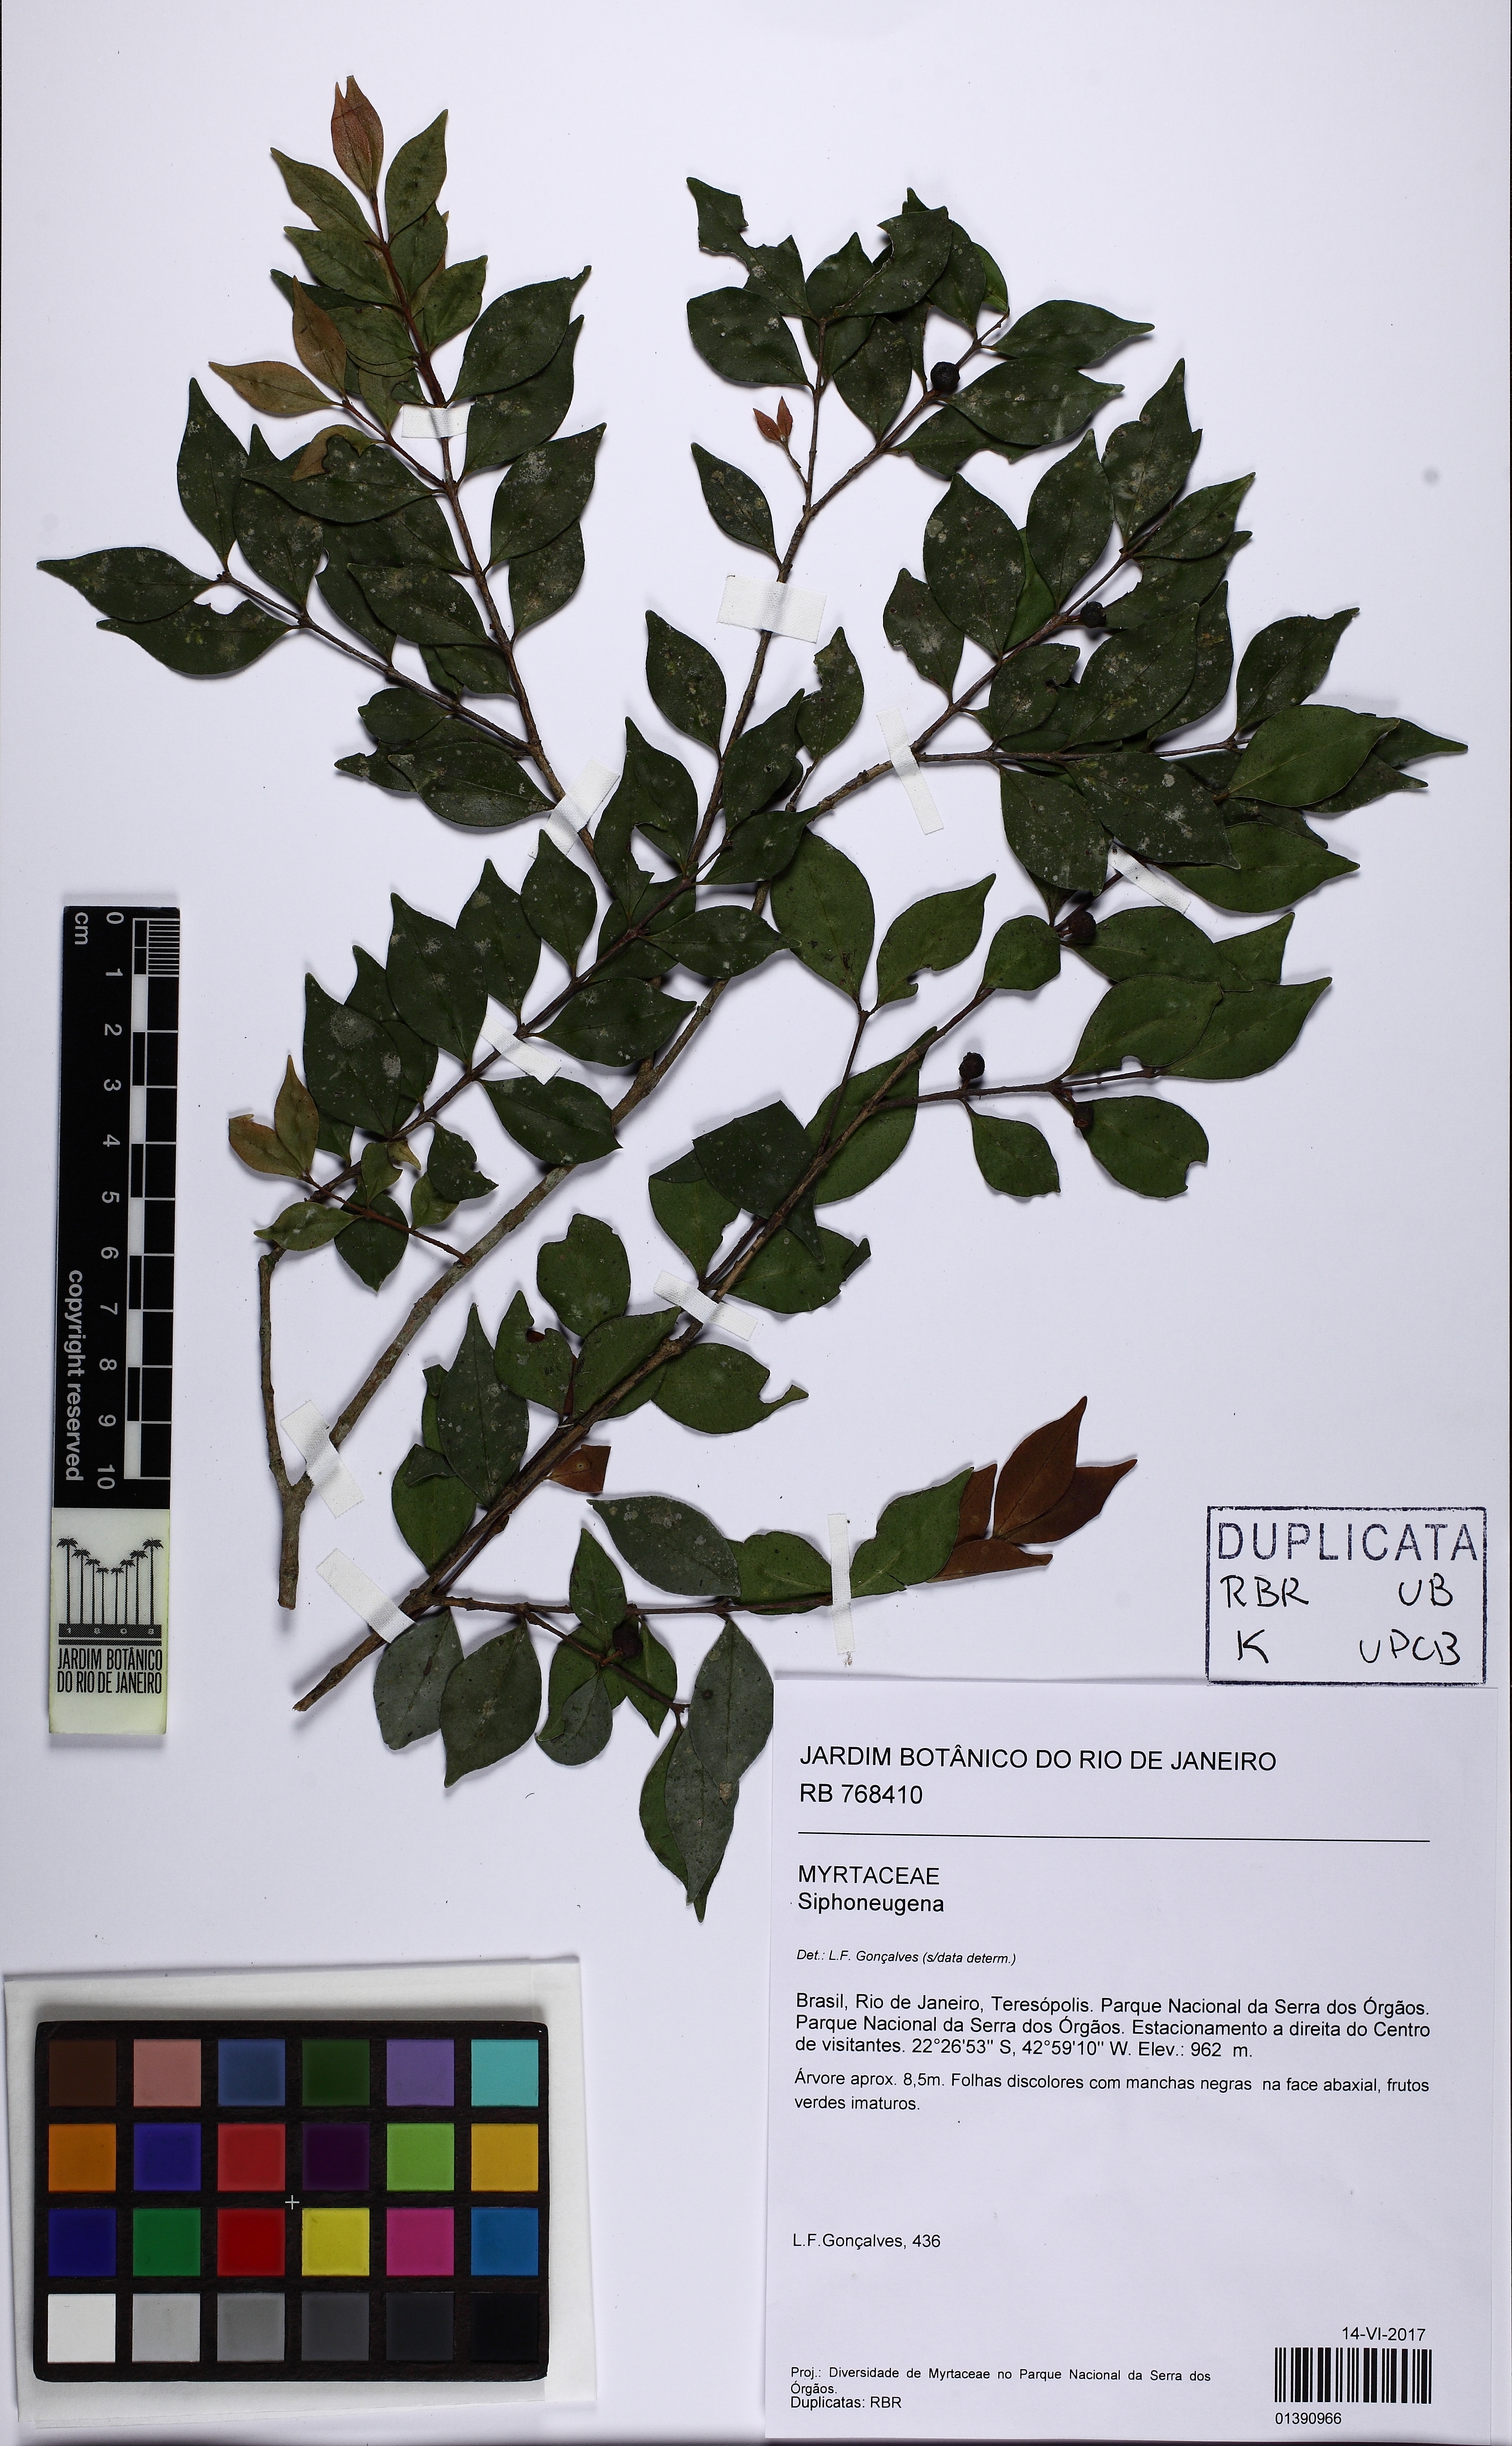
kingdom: Plantae
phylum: Tracheophyta
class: Magnoliopsida
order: Myrtales
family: Myrtaceae
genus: Siphoneugena
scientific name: Siphoneugena
